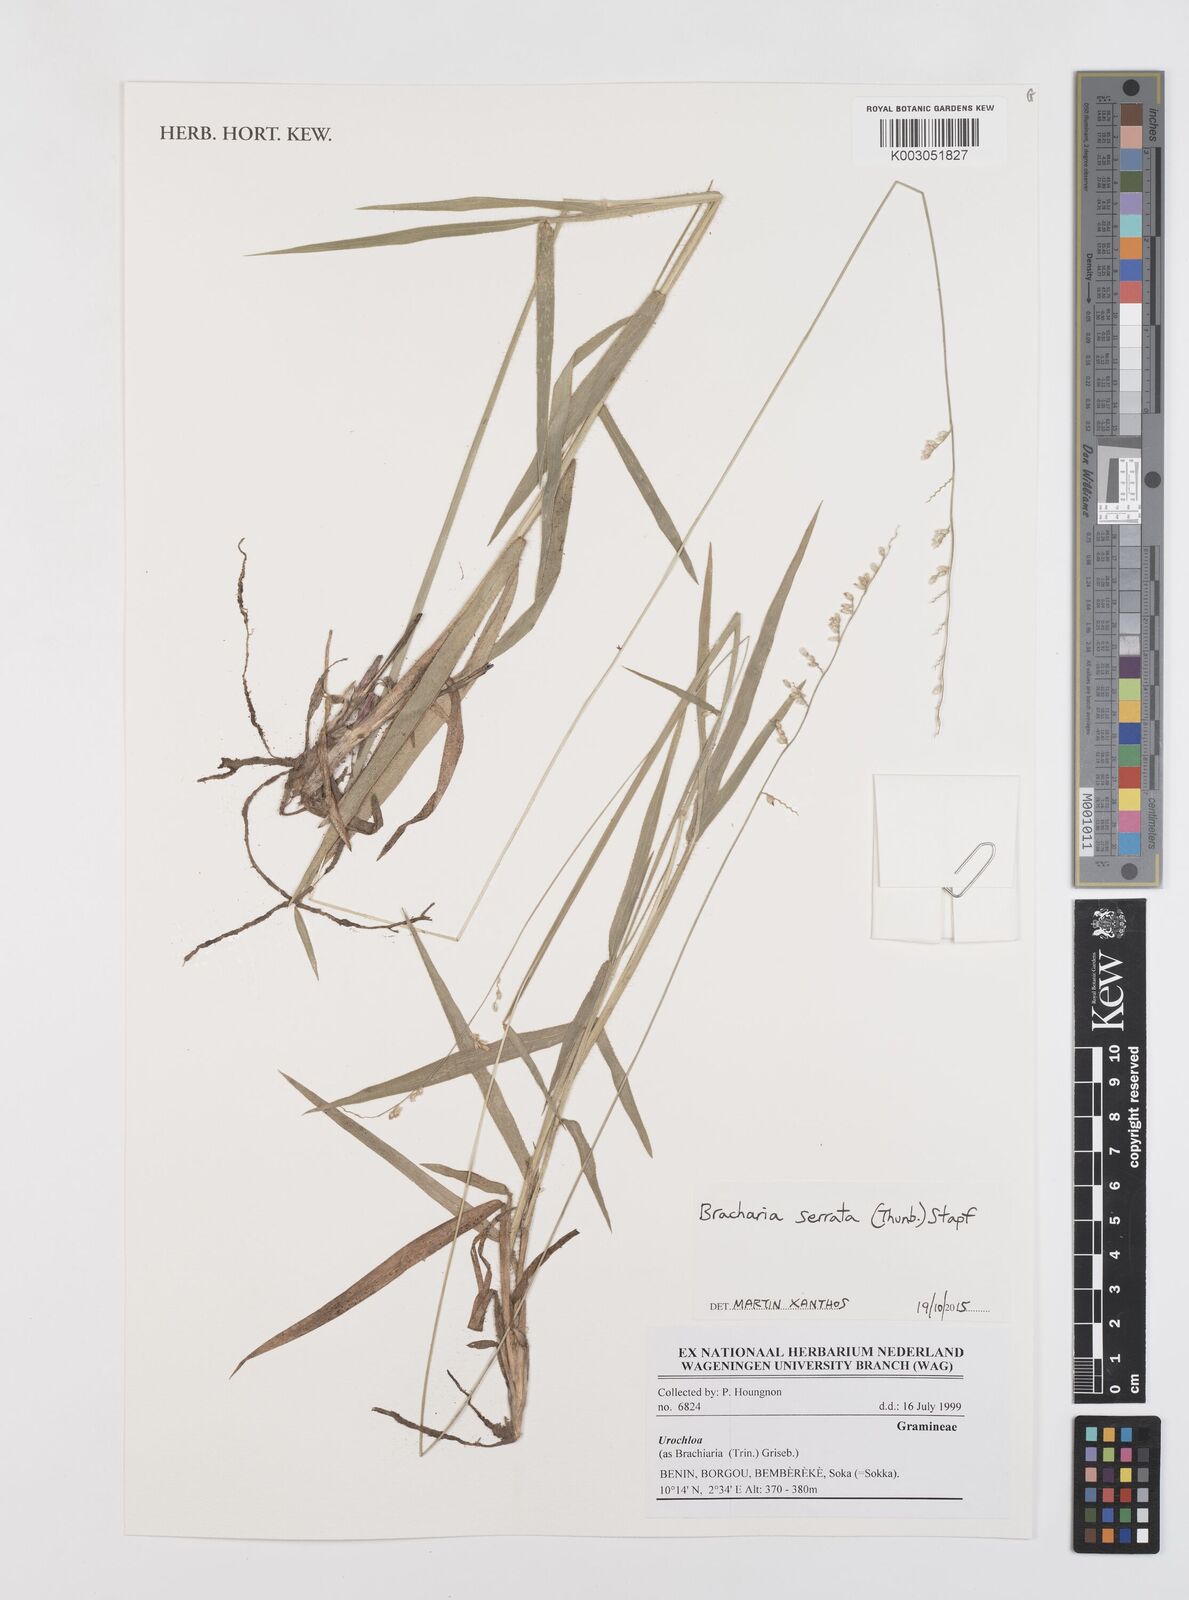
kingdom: Plantae
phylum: Tracheophyta
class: Liliopsida
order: Poales
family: Poaceae
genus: Urochloa
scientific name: Urochloa serrata
